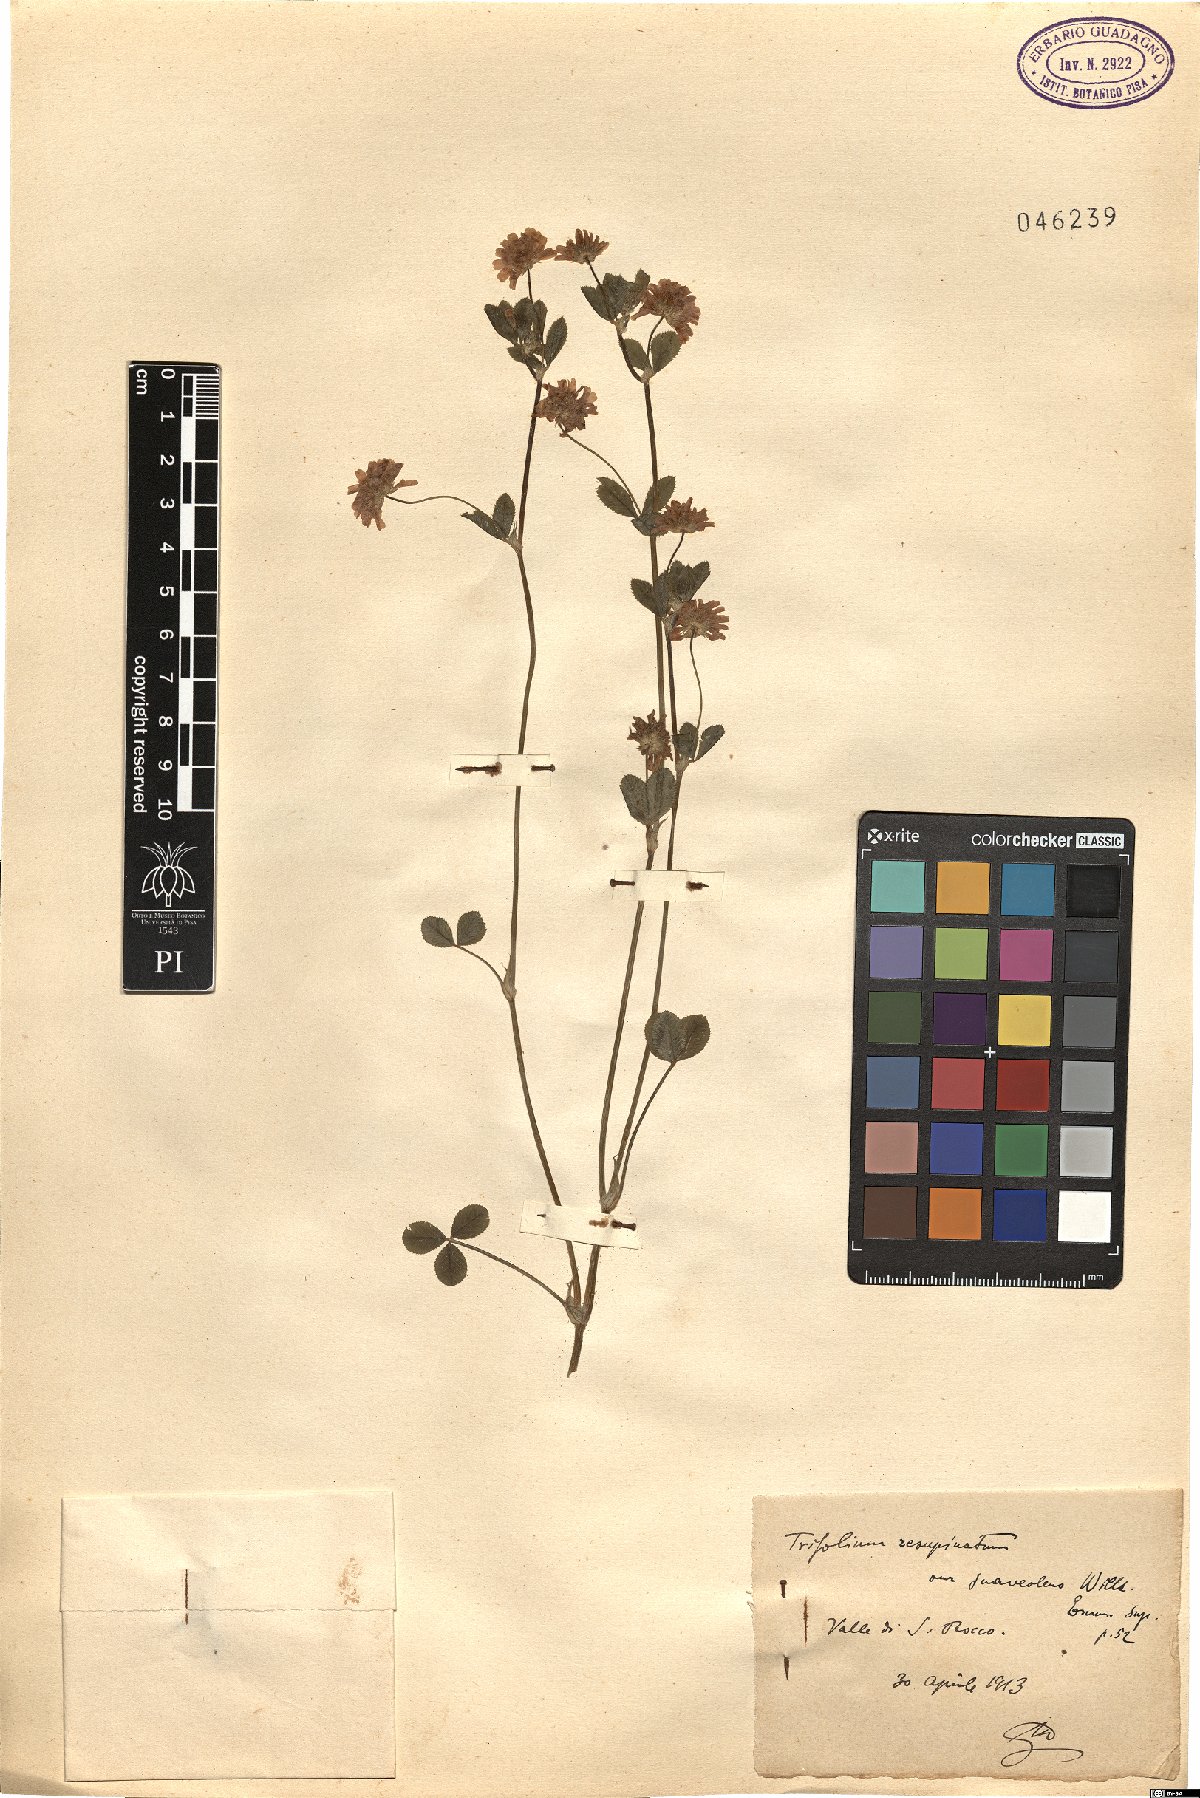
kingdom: Plantae
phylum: Tracheophyta
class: Magnoliopsida
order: Fabales
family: Fabaceae
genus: Trifolium
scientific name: Trifolium resupinatum
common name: Reversed clover
